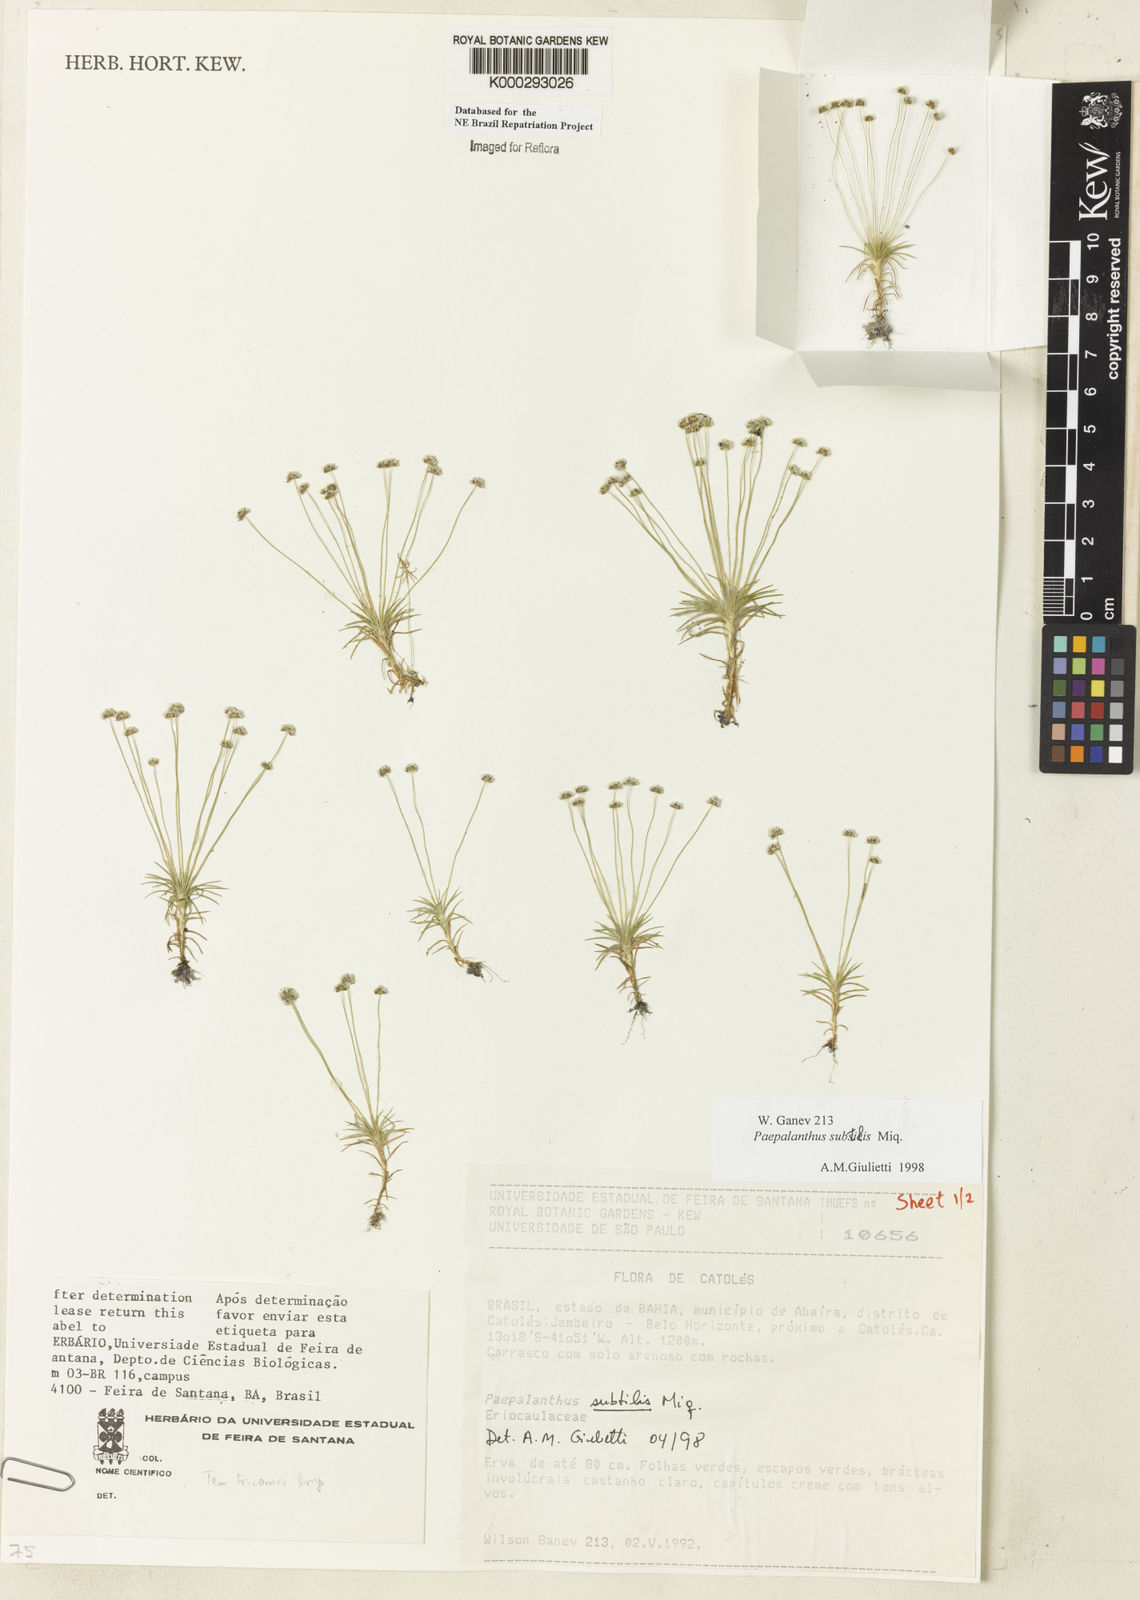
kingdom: Plantae
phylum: Tracheophyta
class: Liliopsida
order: Poales
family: Eriocaulaceae
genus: Paepalanthus
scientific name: Paepalanthus subtilis
